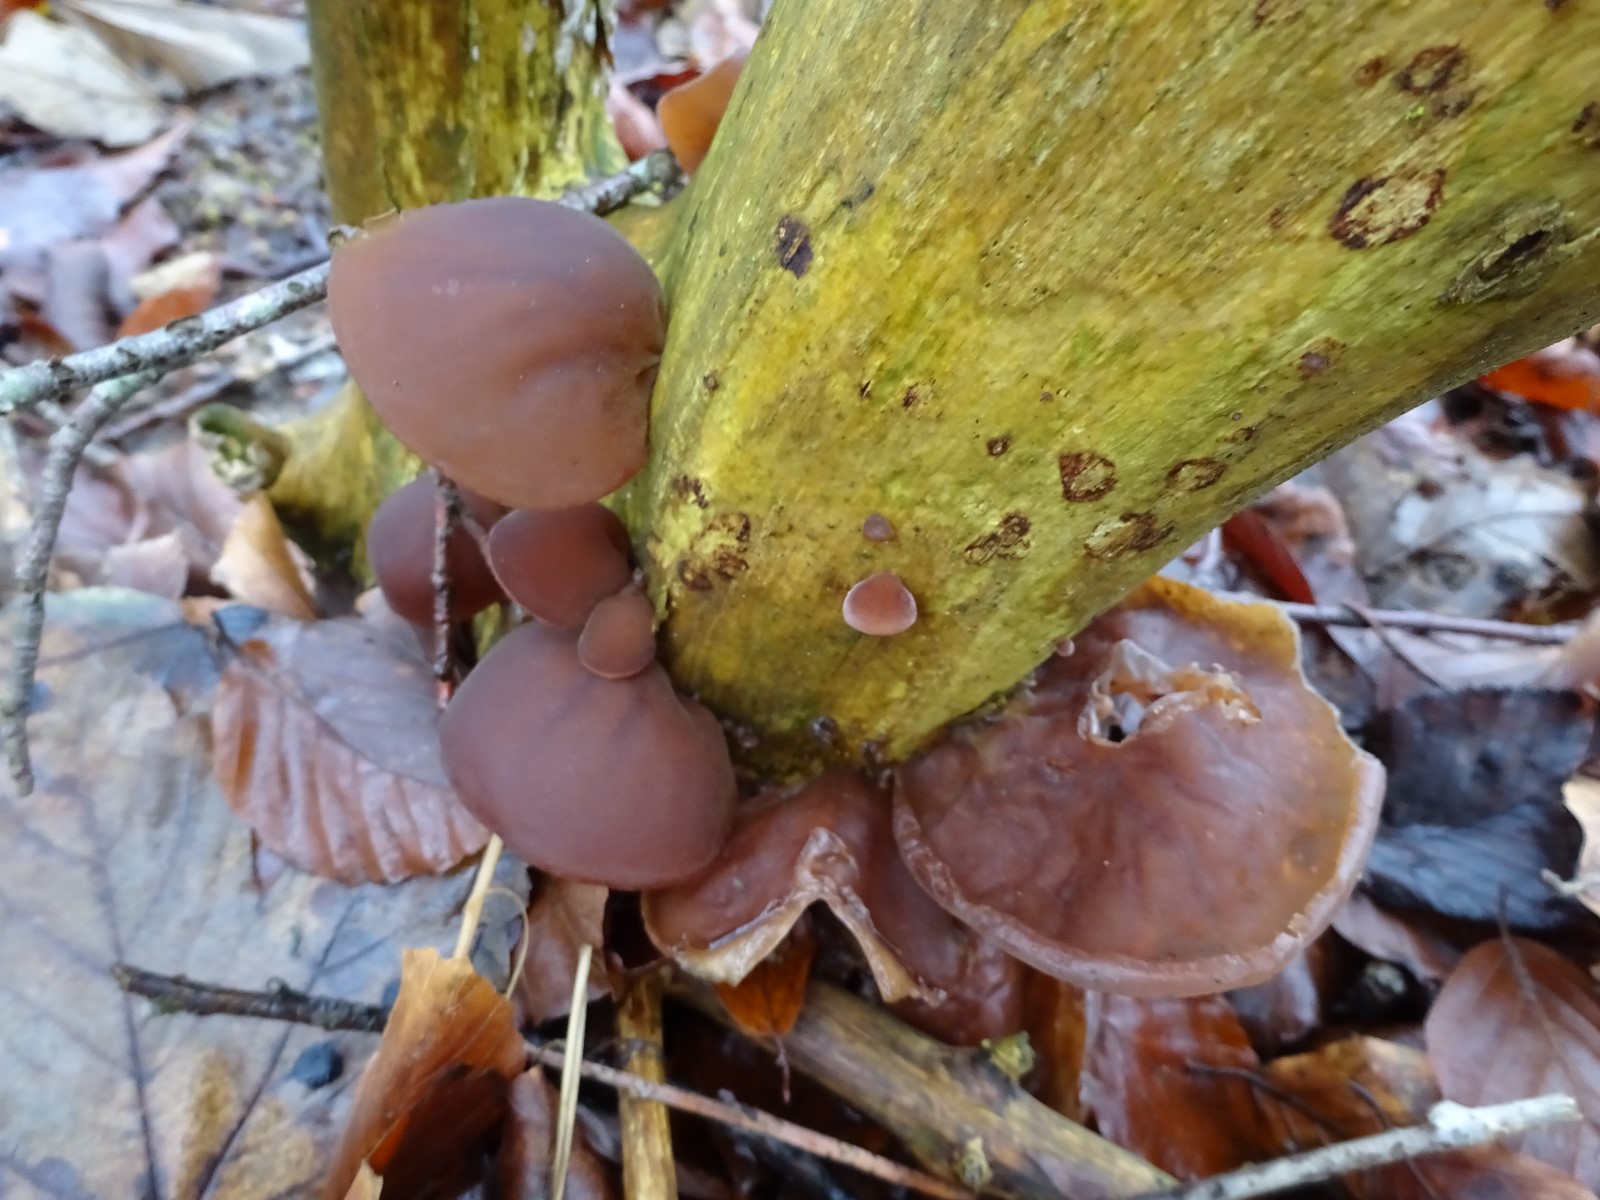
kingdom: Fungi
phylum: Basidiomycota
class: Agaricomycetes
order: Auriculariales
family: Auriculariaceae
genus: Auricularia
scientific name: Auricularia auricula-judae
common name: almindelig judasøre
